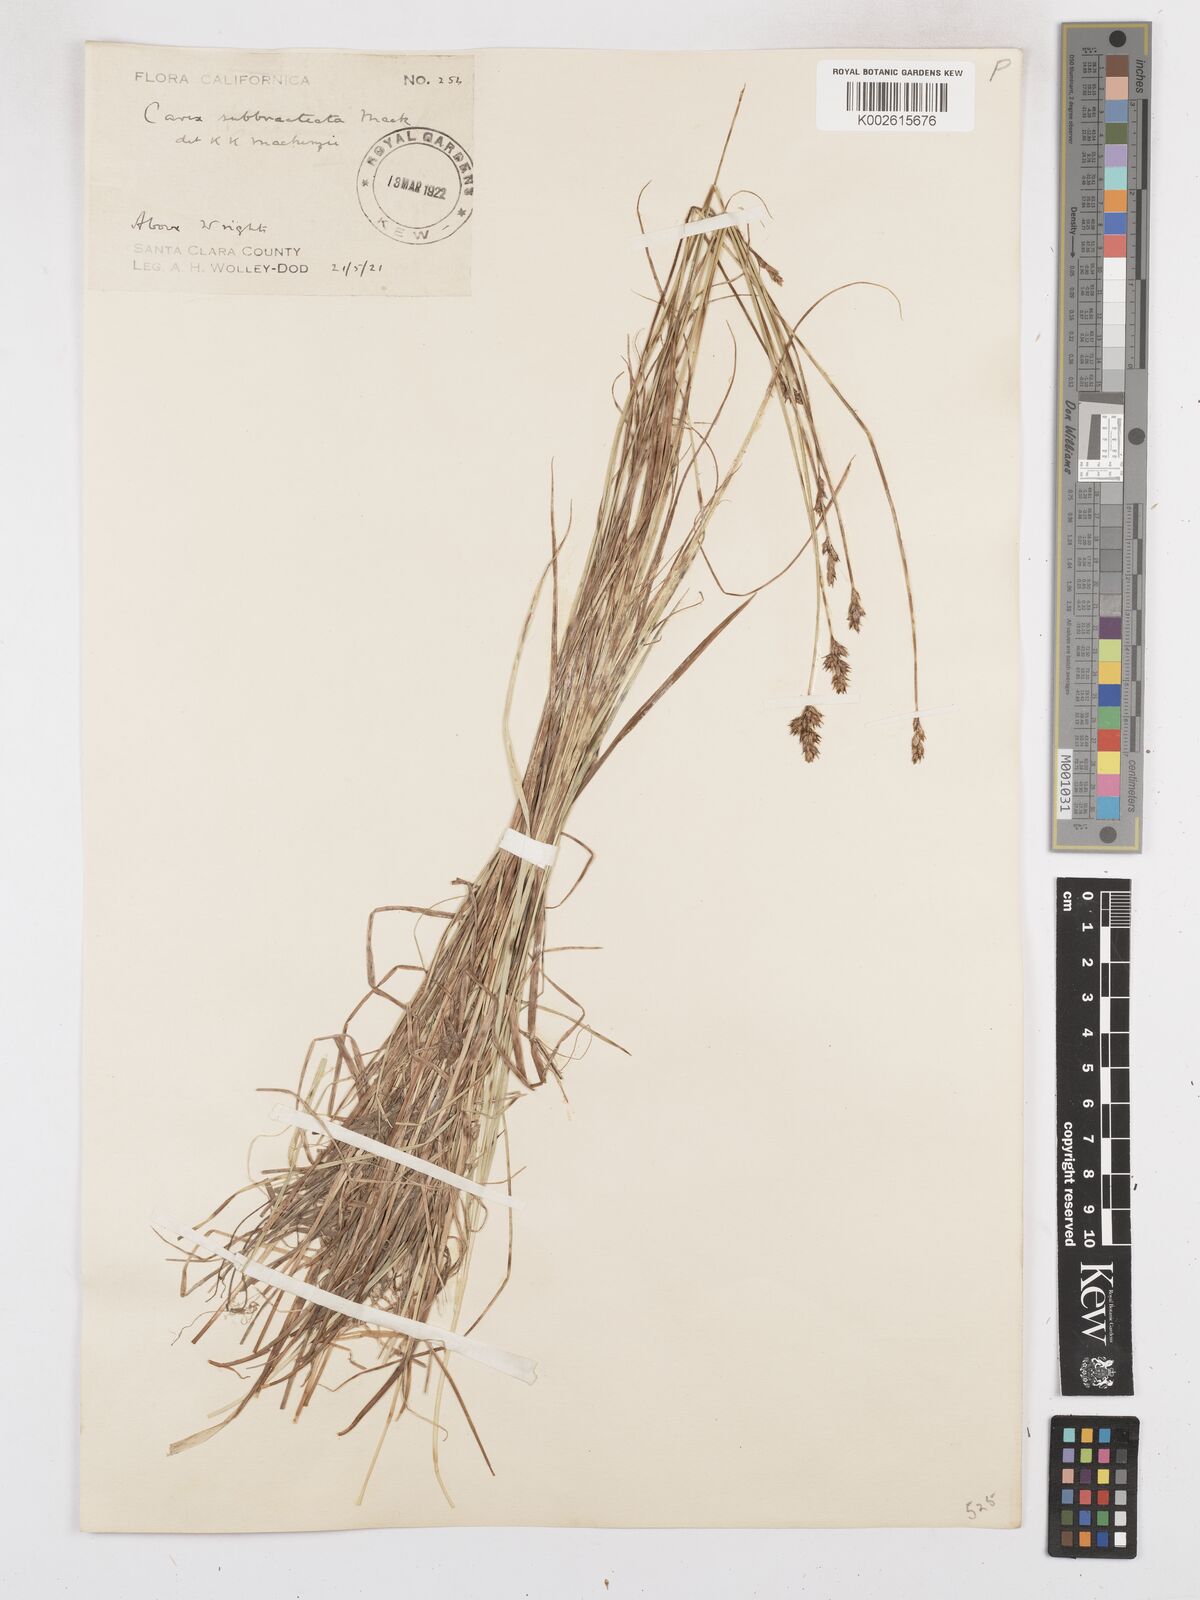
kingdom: Plantae
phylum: Tracheophyta
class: Liliopsida
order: Poales
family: Cyperaceae
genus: Carex
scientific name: Carex subbracteata
